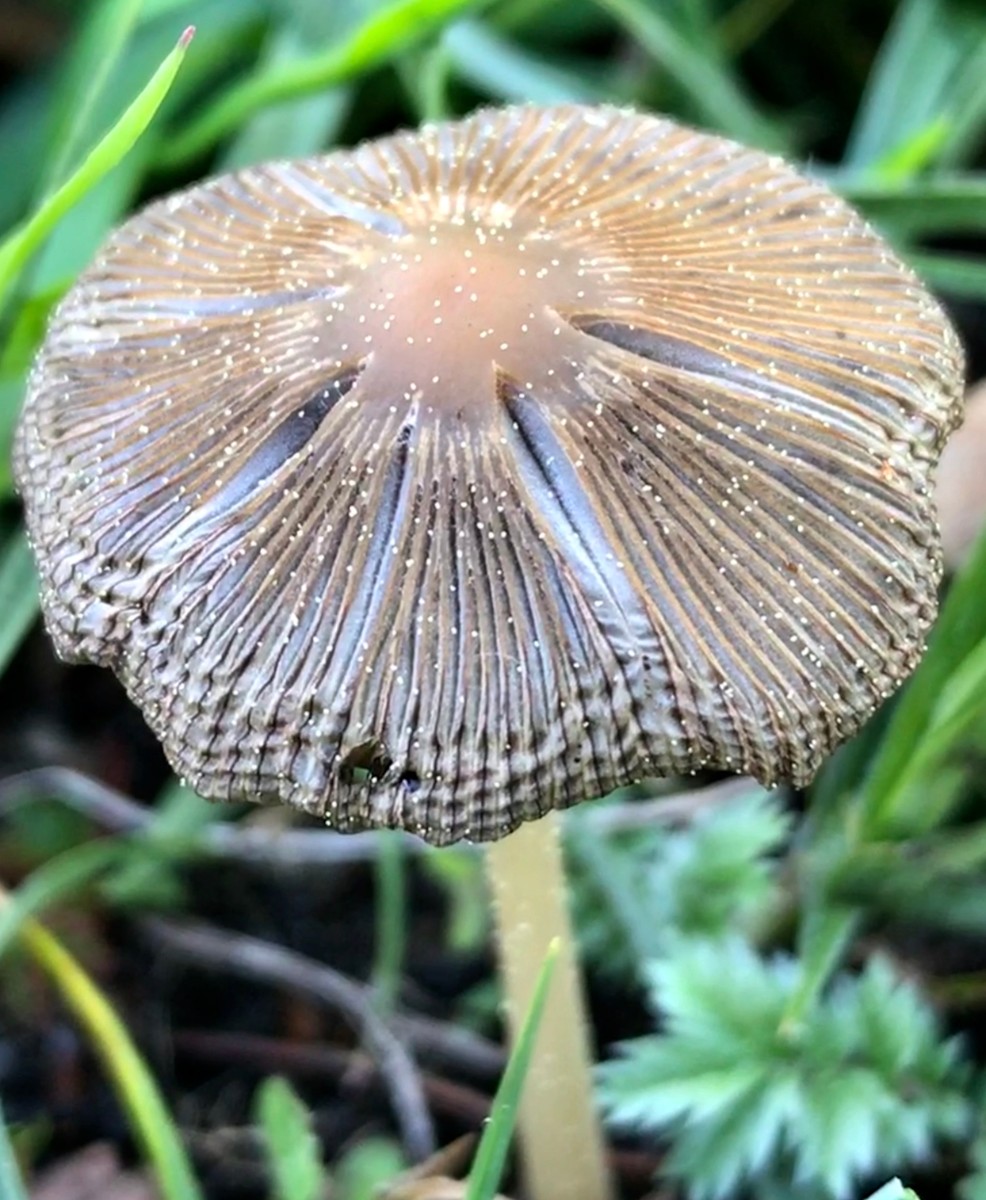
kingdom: Fungi
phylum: Basidiomycota
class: Agaricomycetes
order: Agaricales
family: Psathyrellaceae
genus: Parasola
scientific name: Parasola
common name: hjulhat
